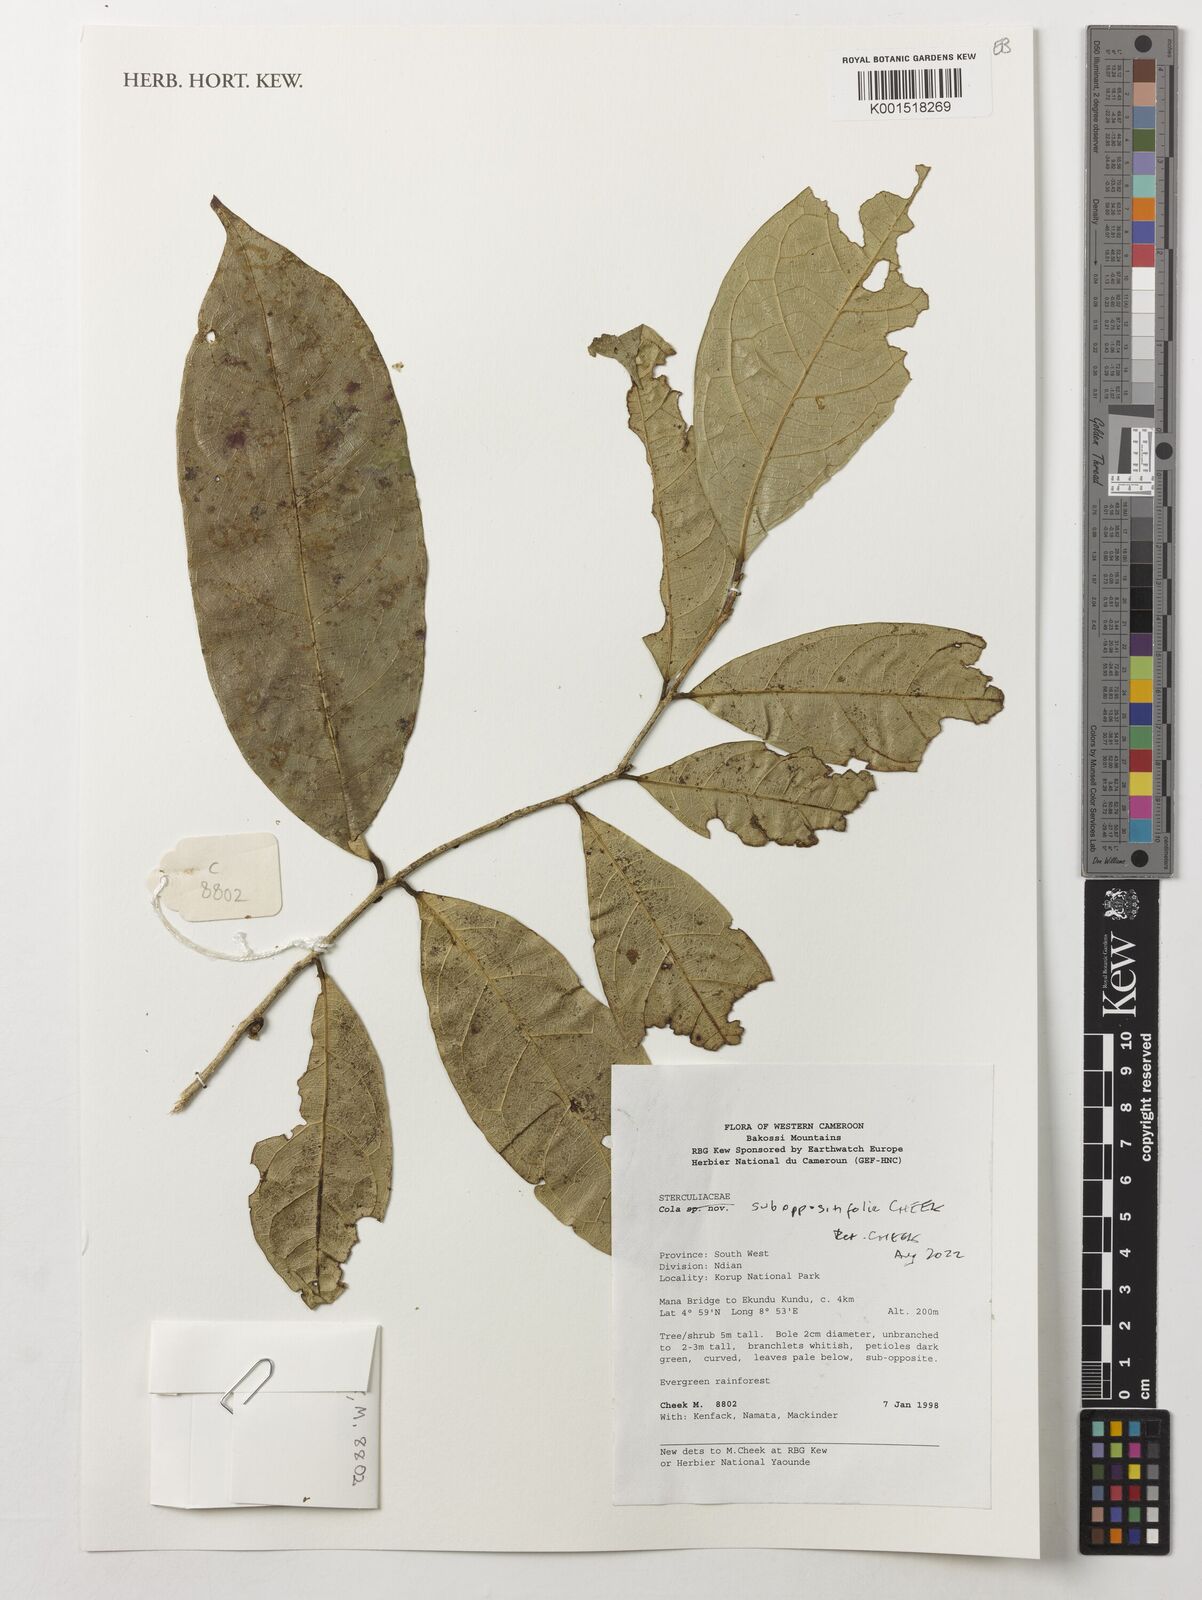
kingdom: Plantae
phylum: Tracheophyta
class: Magnoliopsida
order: Malvales
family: Malvaceae
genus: Cola
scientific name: Cola suboppositifolia
